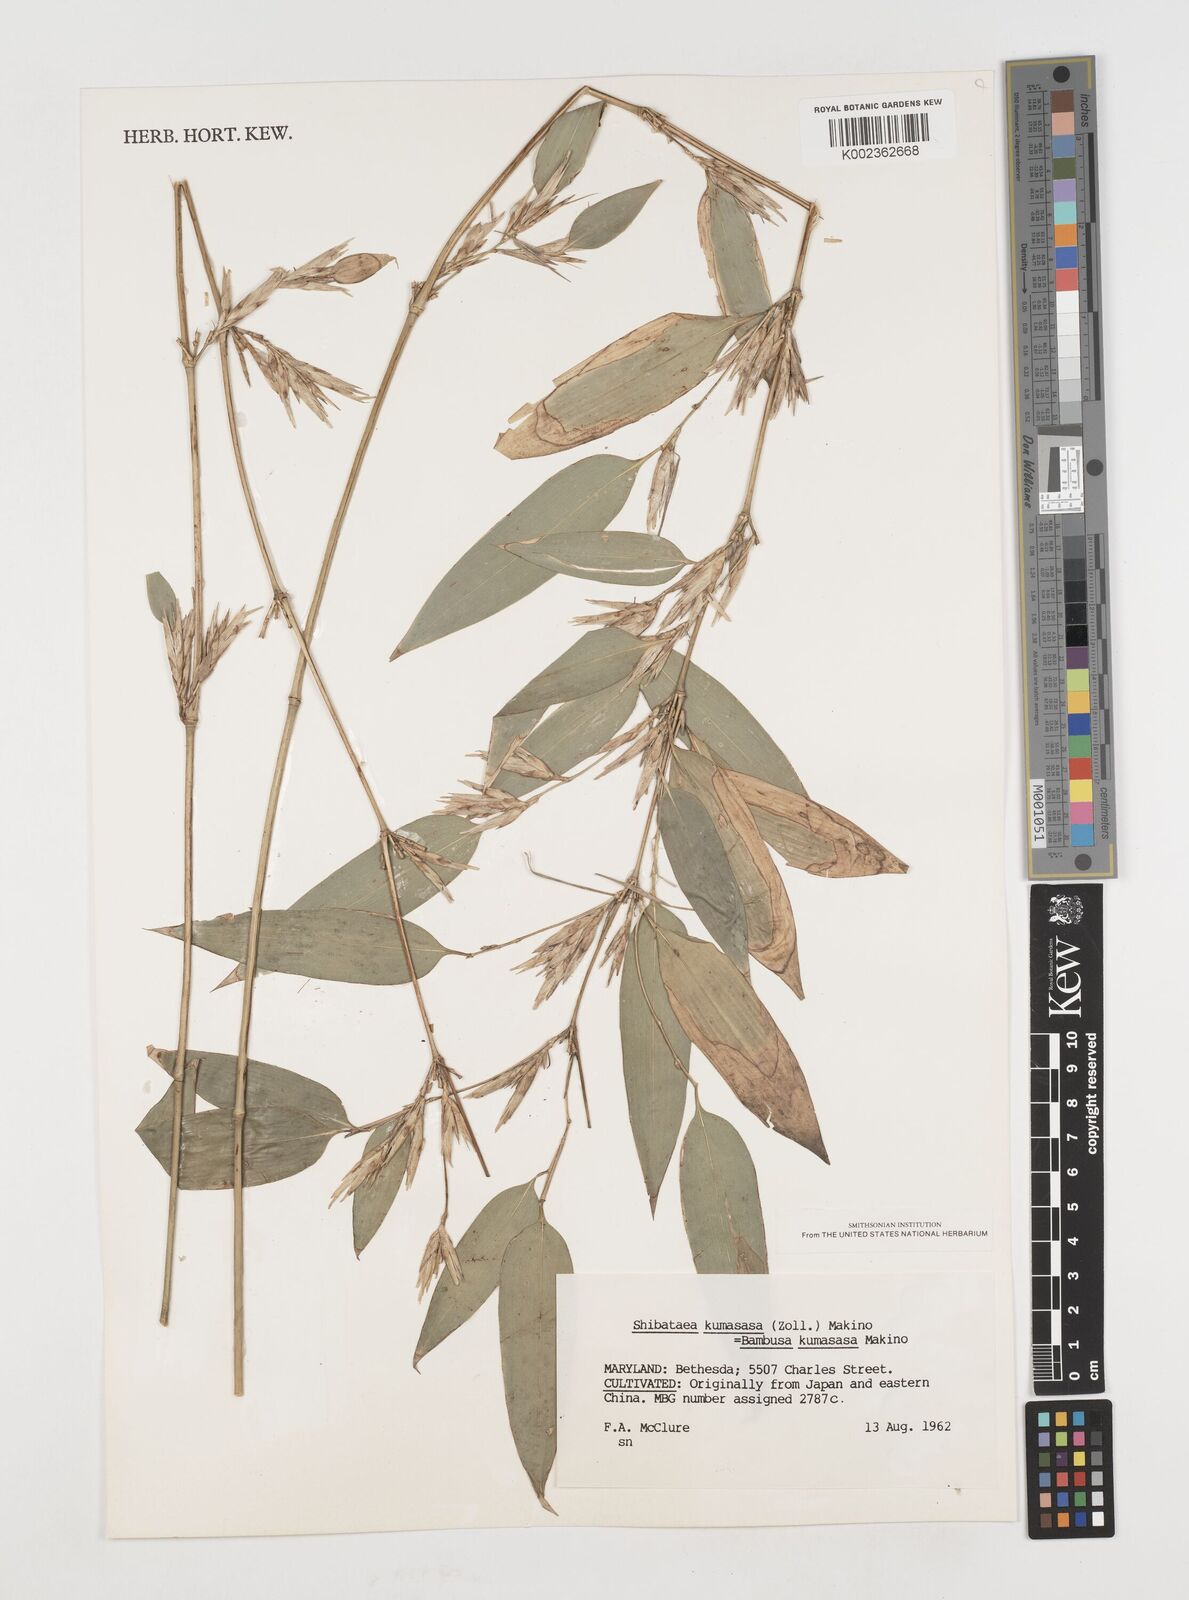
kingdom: Plantae
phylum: Tracheophyta
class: Liliopsida
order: Poales
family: Poaceae
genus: Shibataea
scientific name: Shibataea
